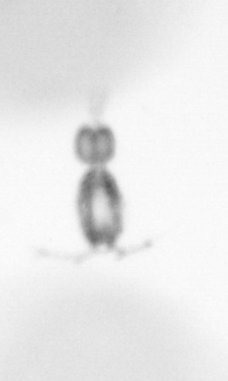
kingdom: Animalia
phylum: Arthropoda
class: Copepoda
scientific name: Copepoda
